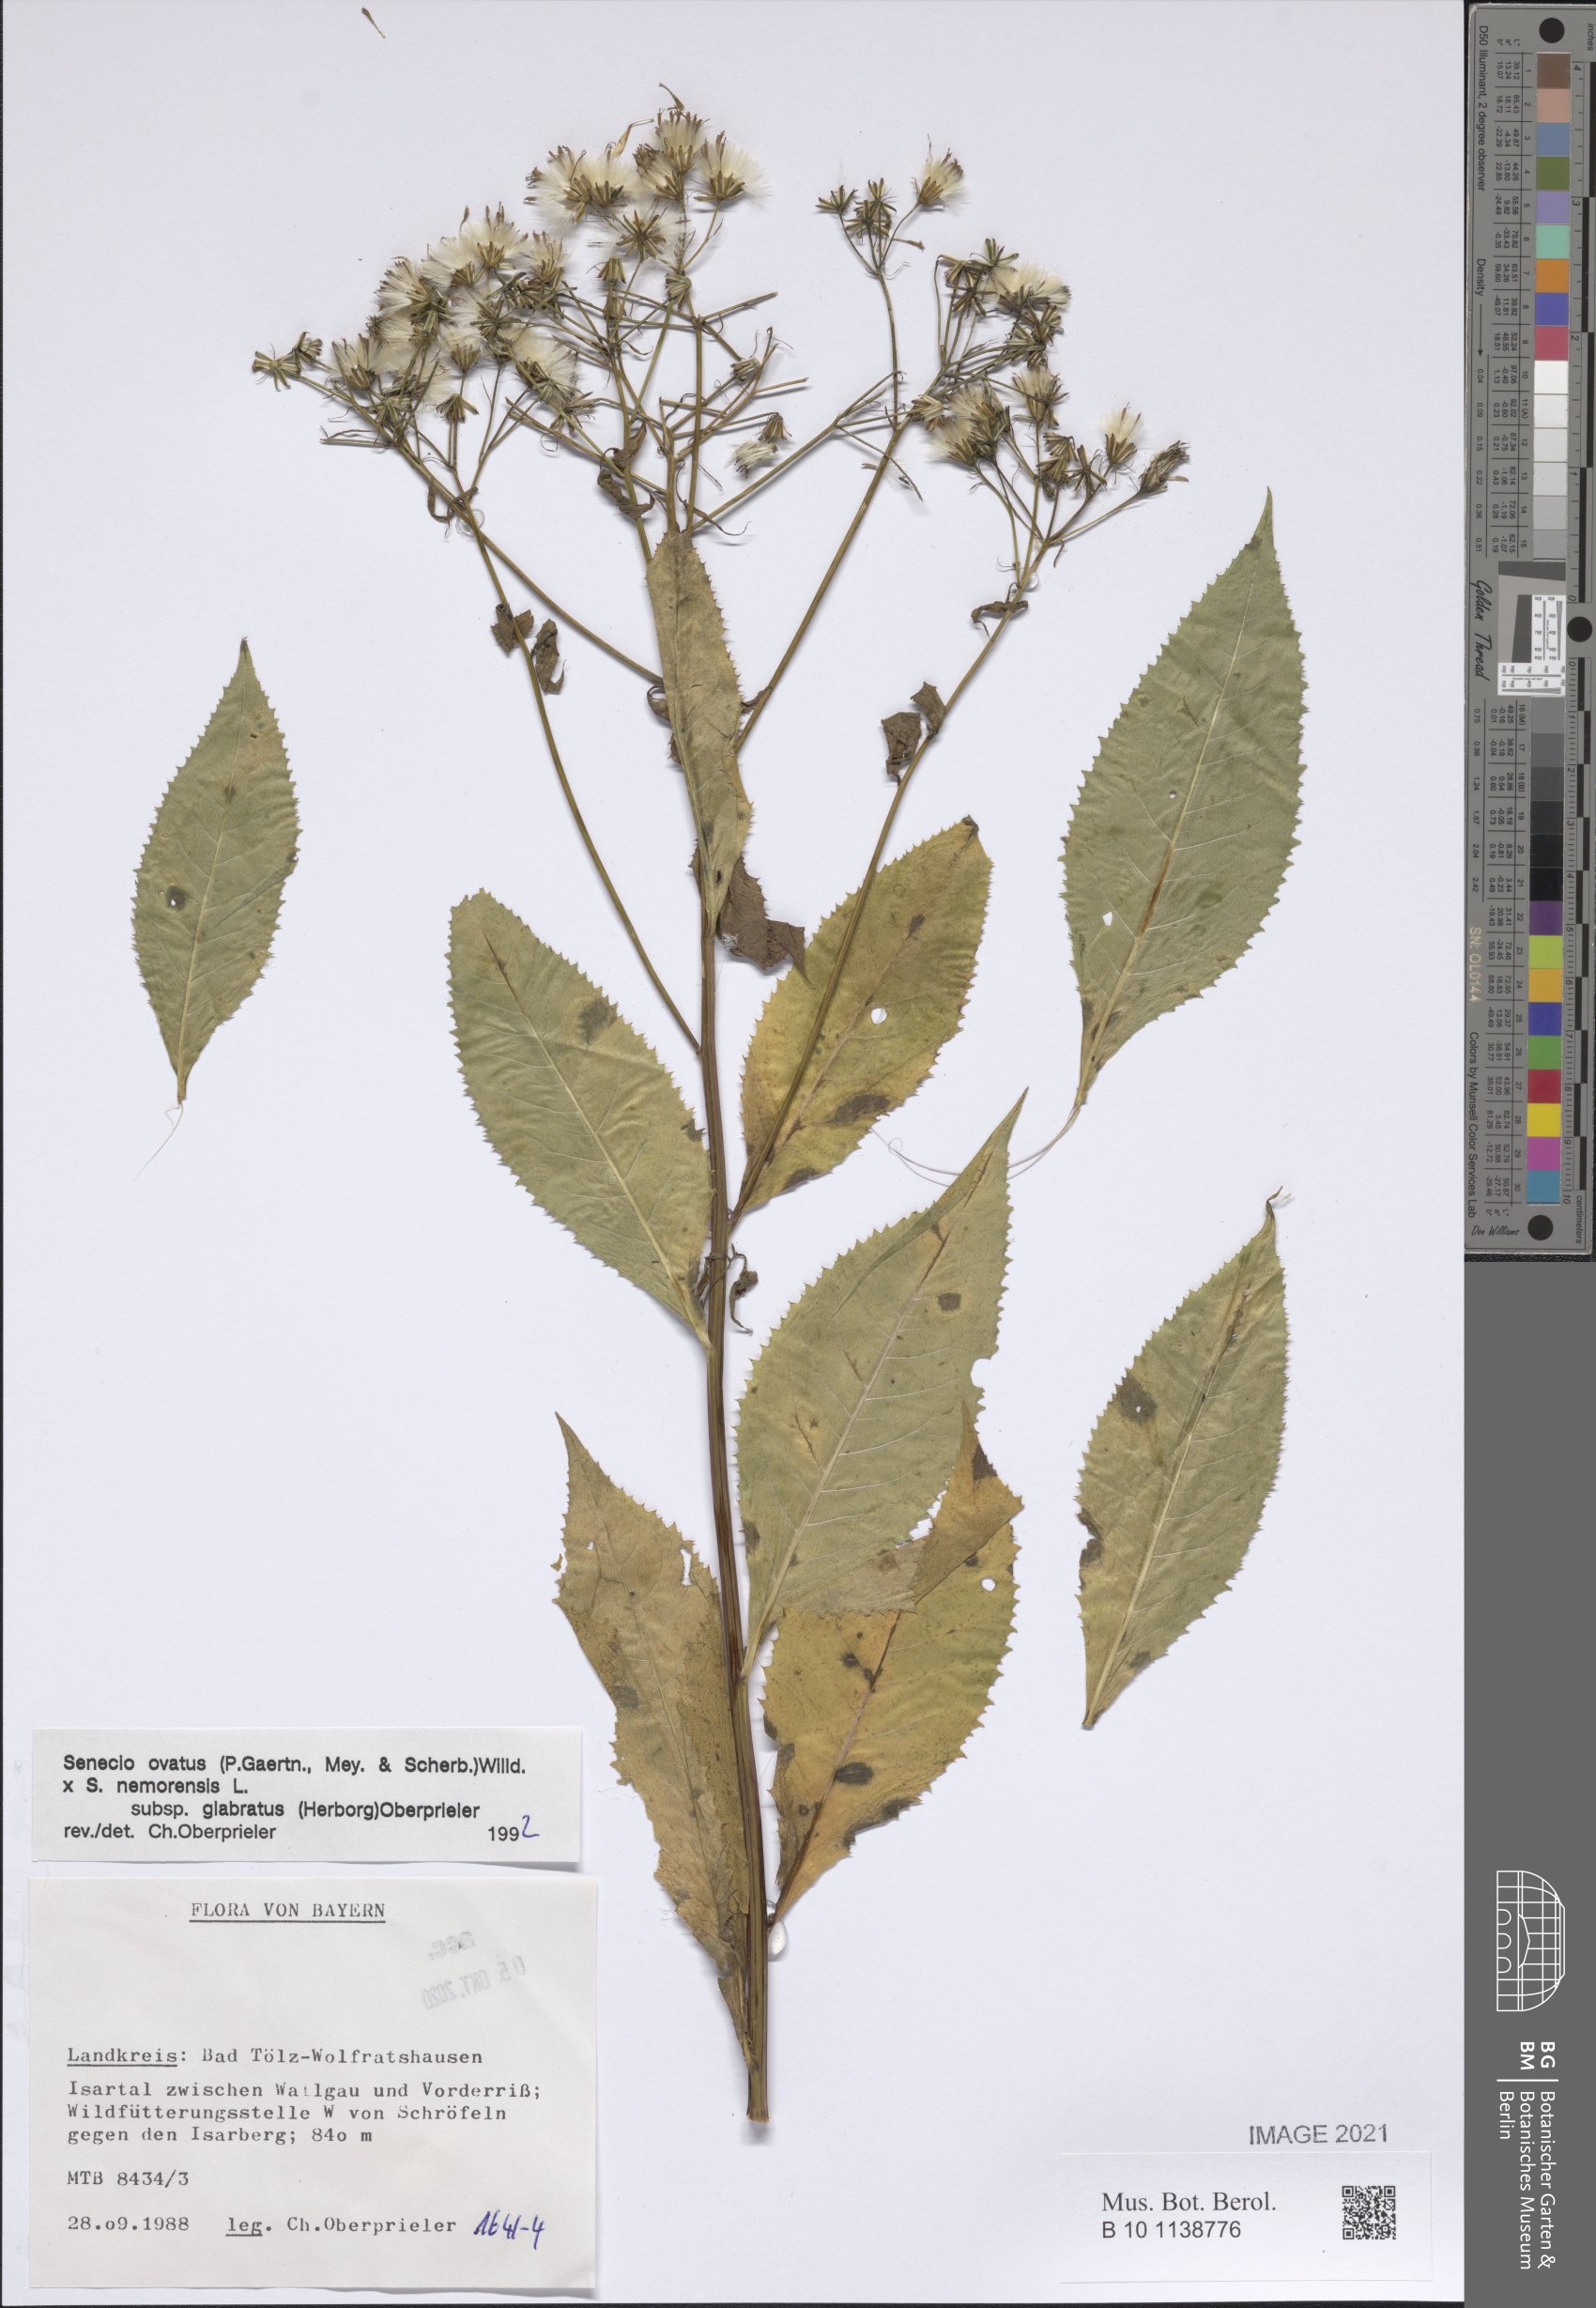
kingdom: Plantae
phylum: Tracheophyta
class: Magnoliopsida
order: Asterales
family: Asteraceae
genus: Senecio
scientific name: Senecio ovatus
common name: Wood ragwort
